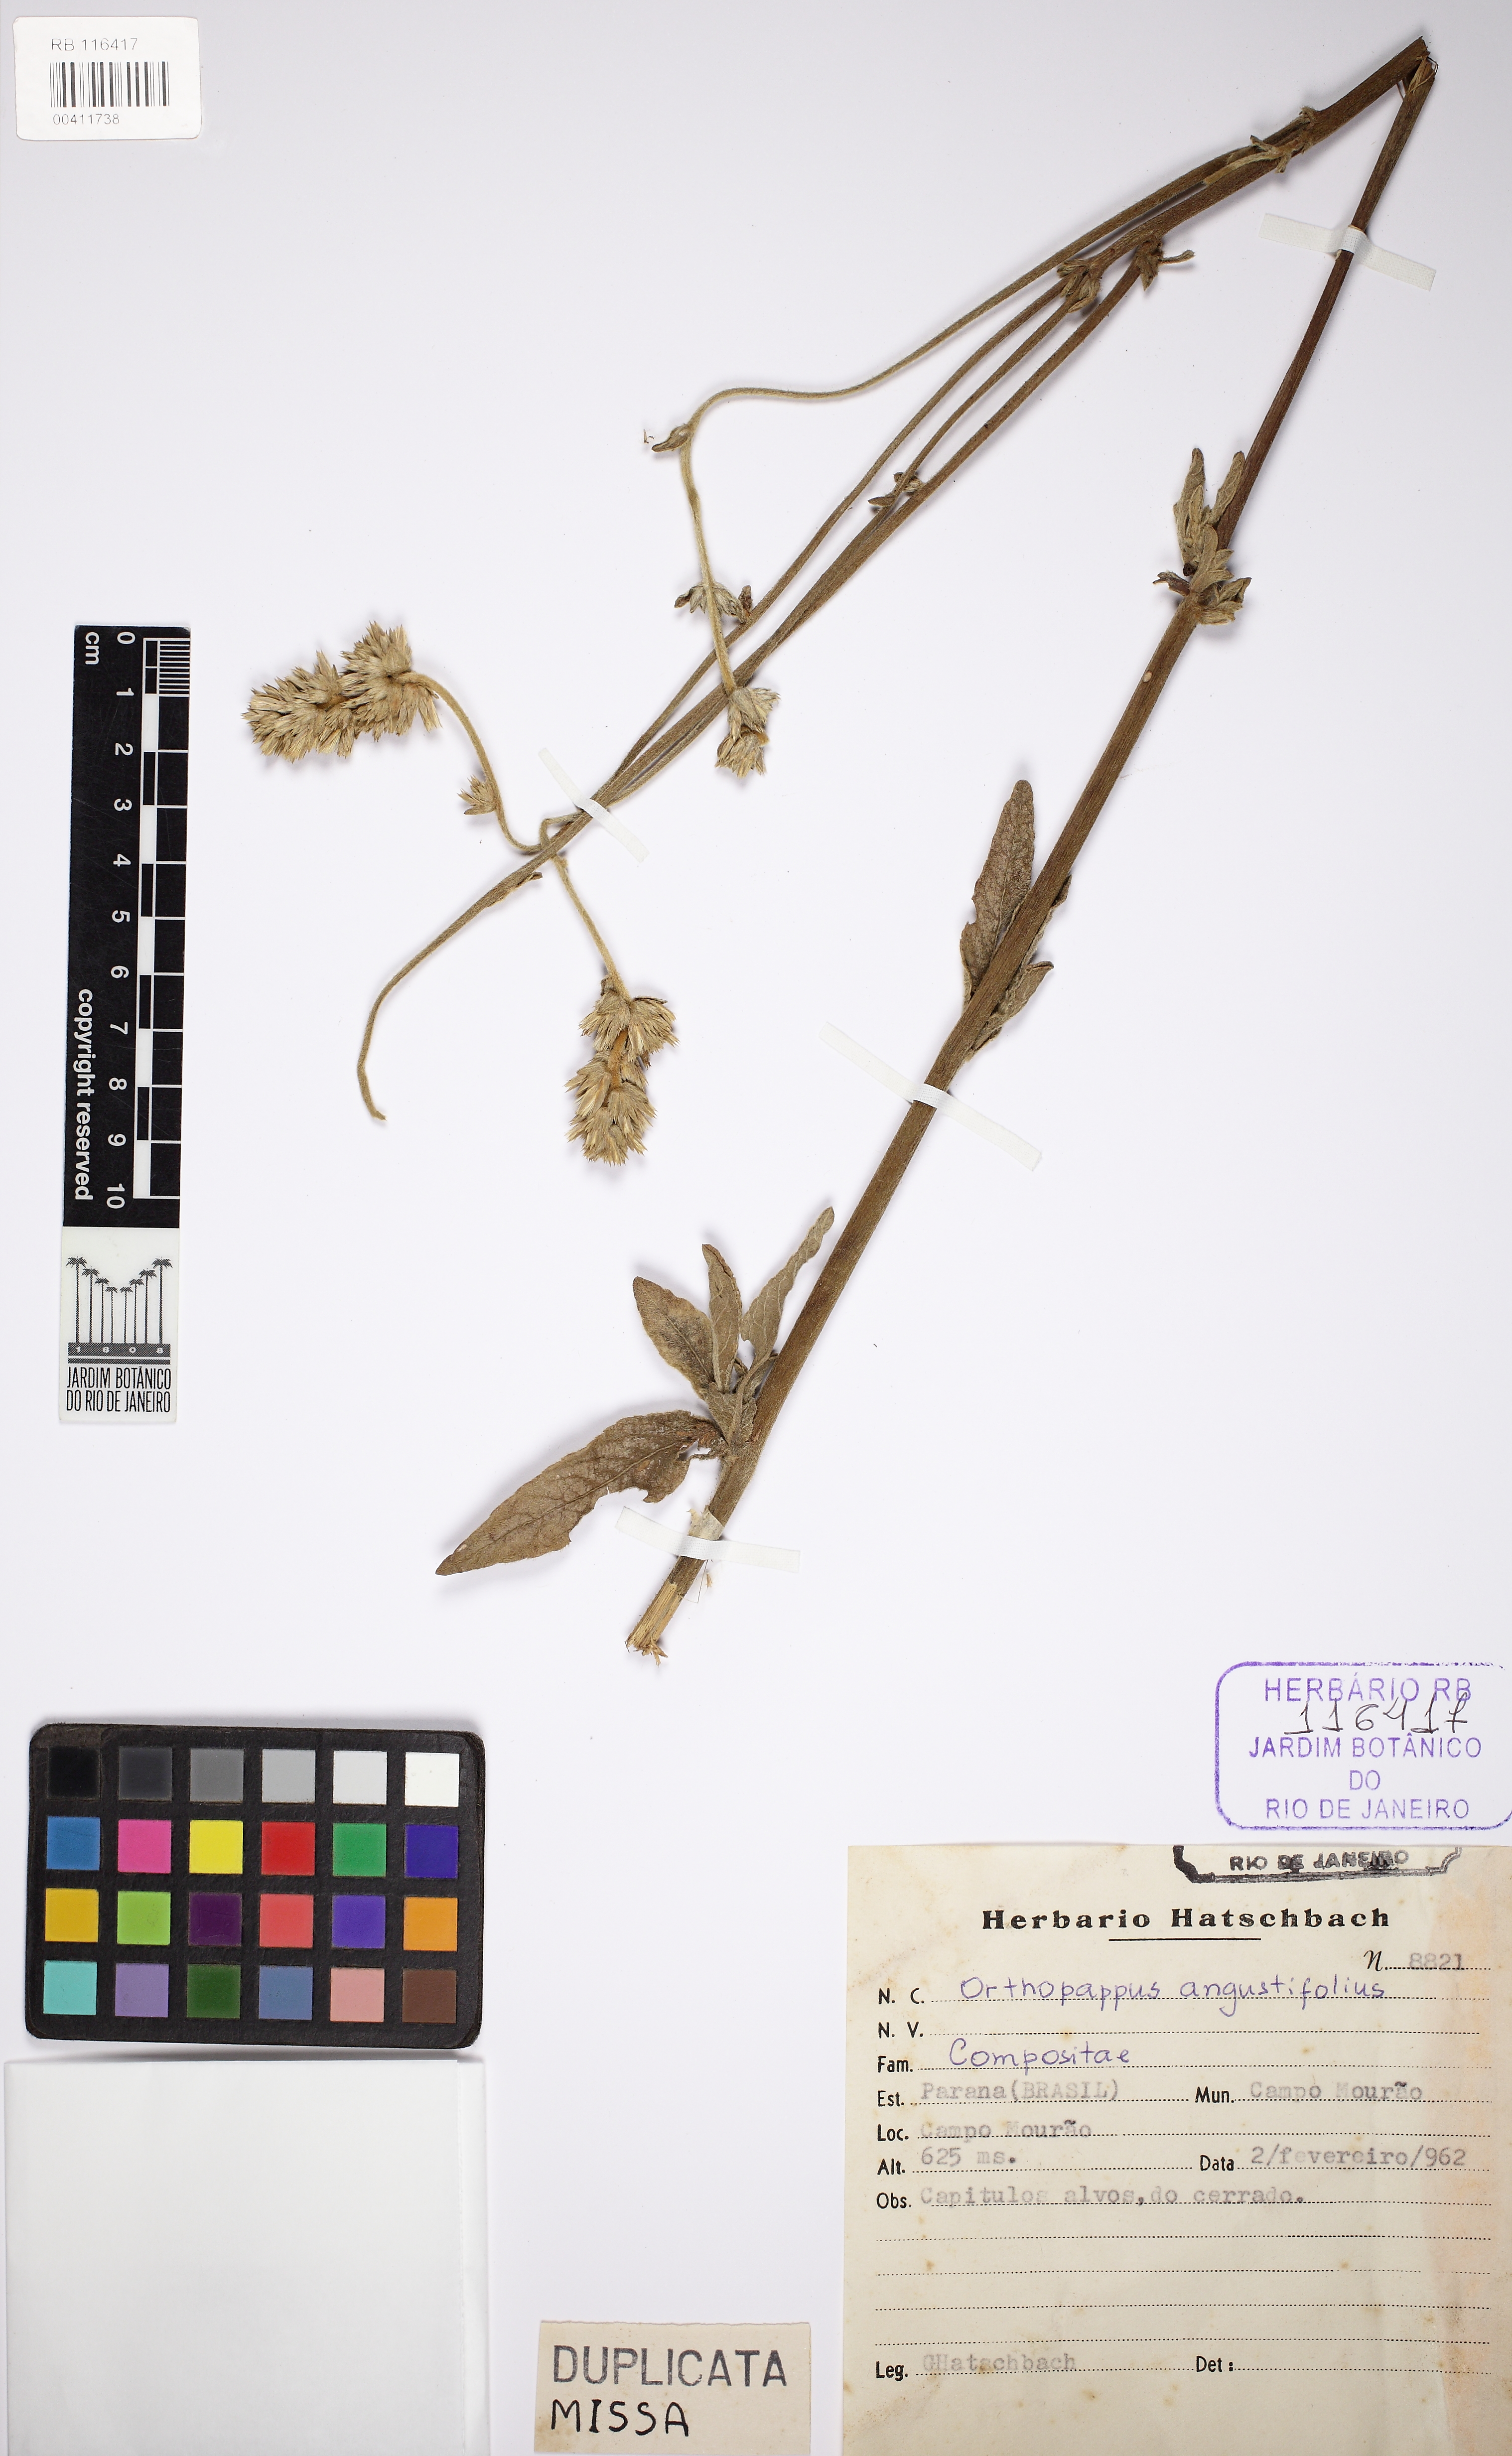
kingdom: Plantae
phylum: Tracheophyta
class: Magnoliopsida
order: Asterales
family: Asteraceae
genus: Orthopappus
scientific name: Orthopappus angustifolius
